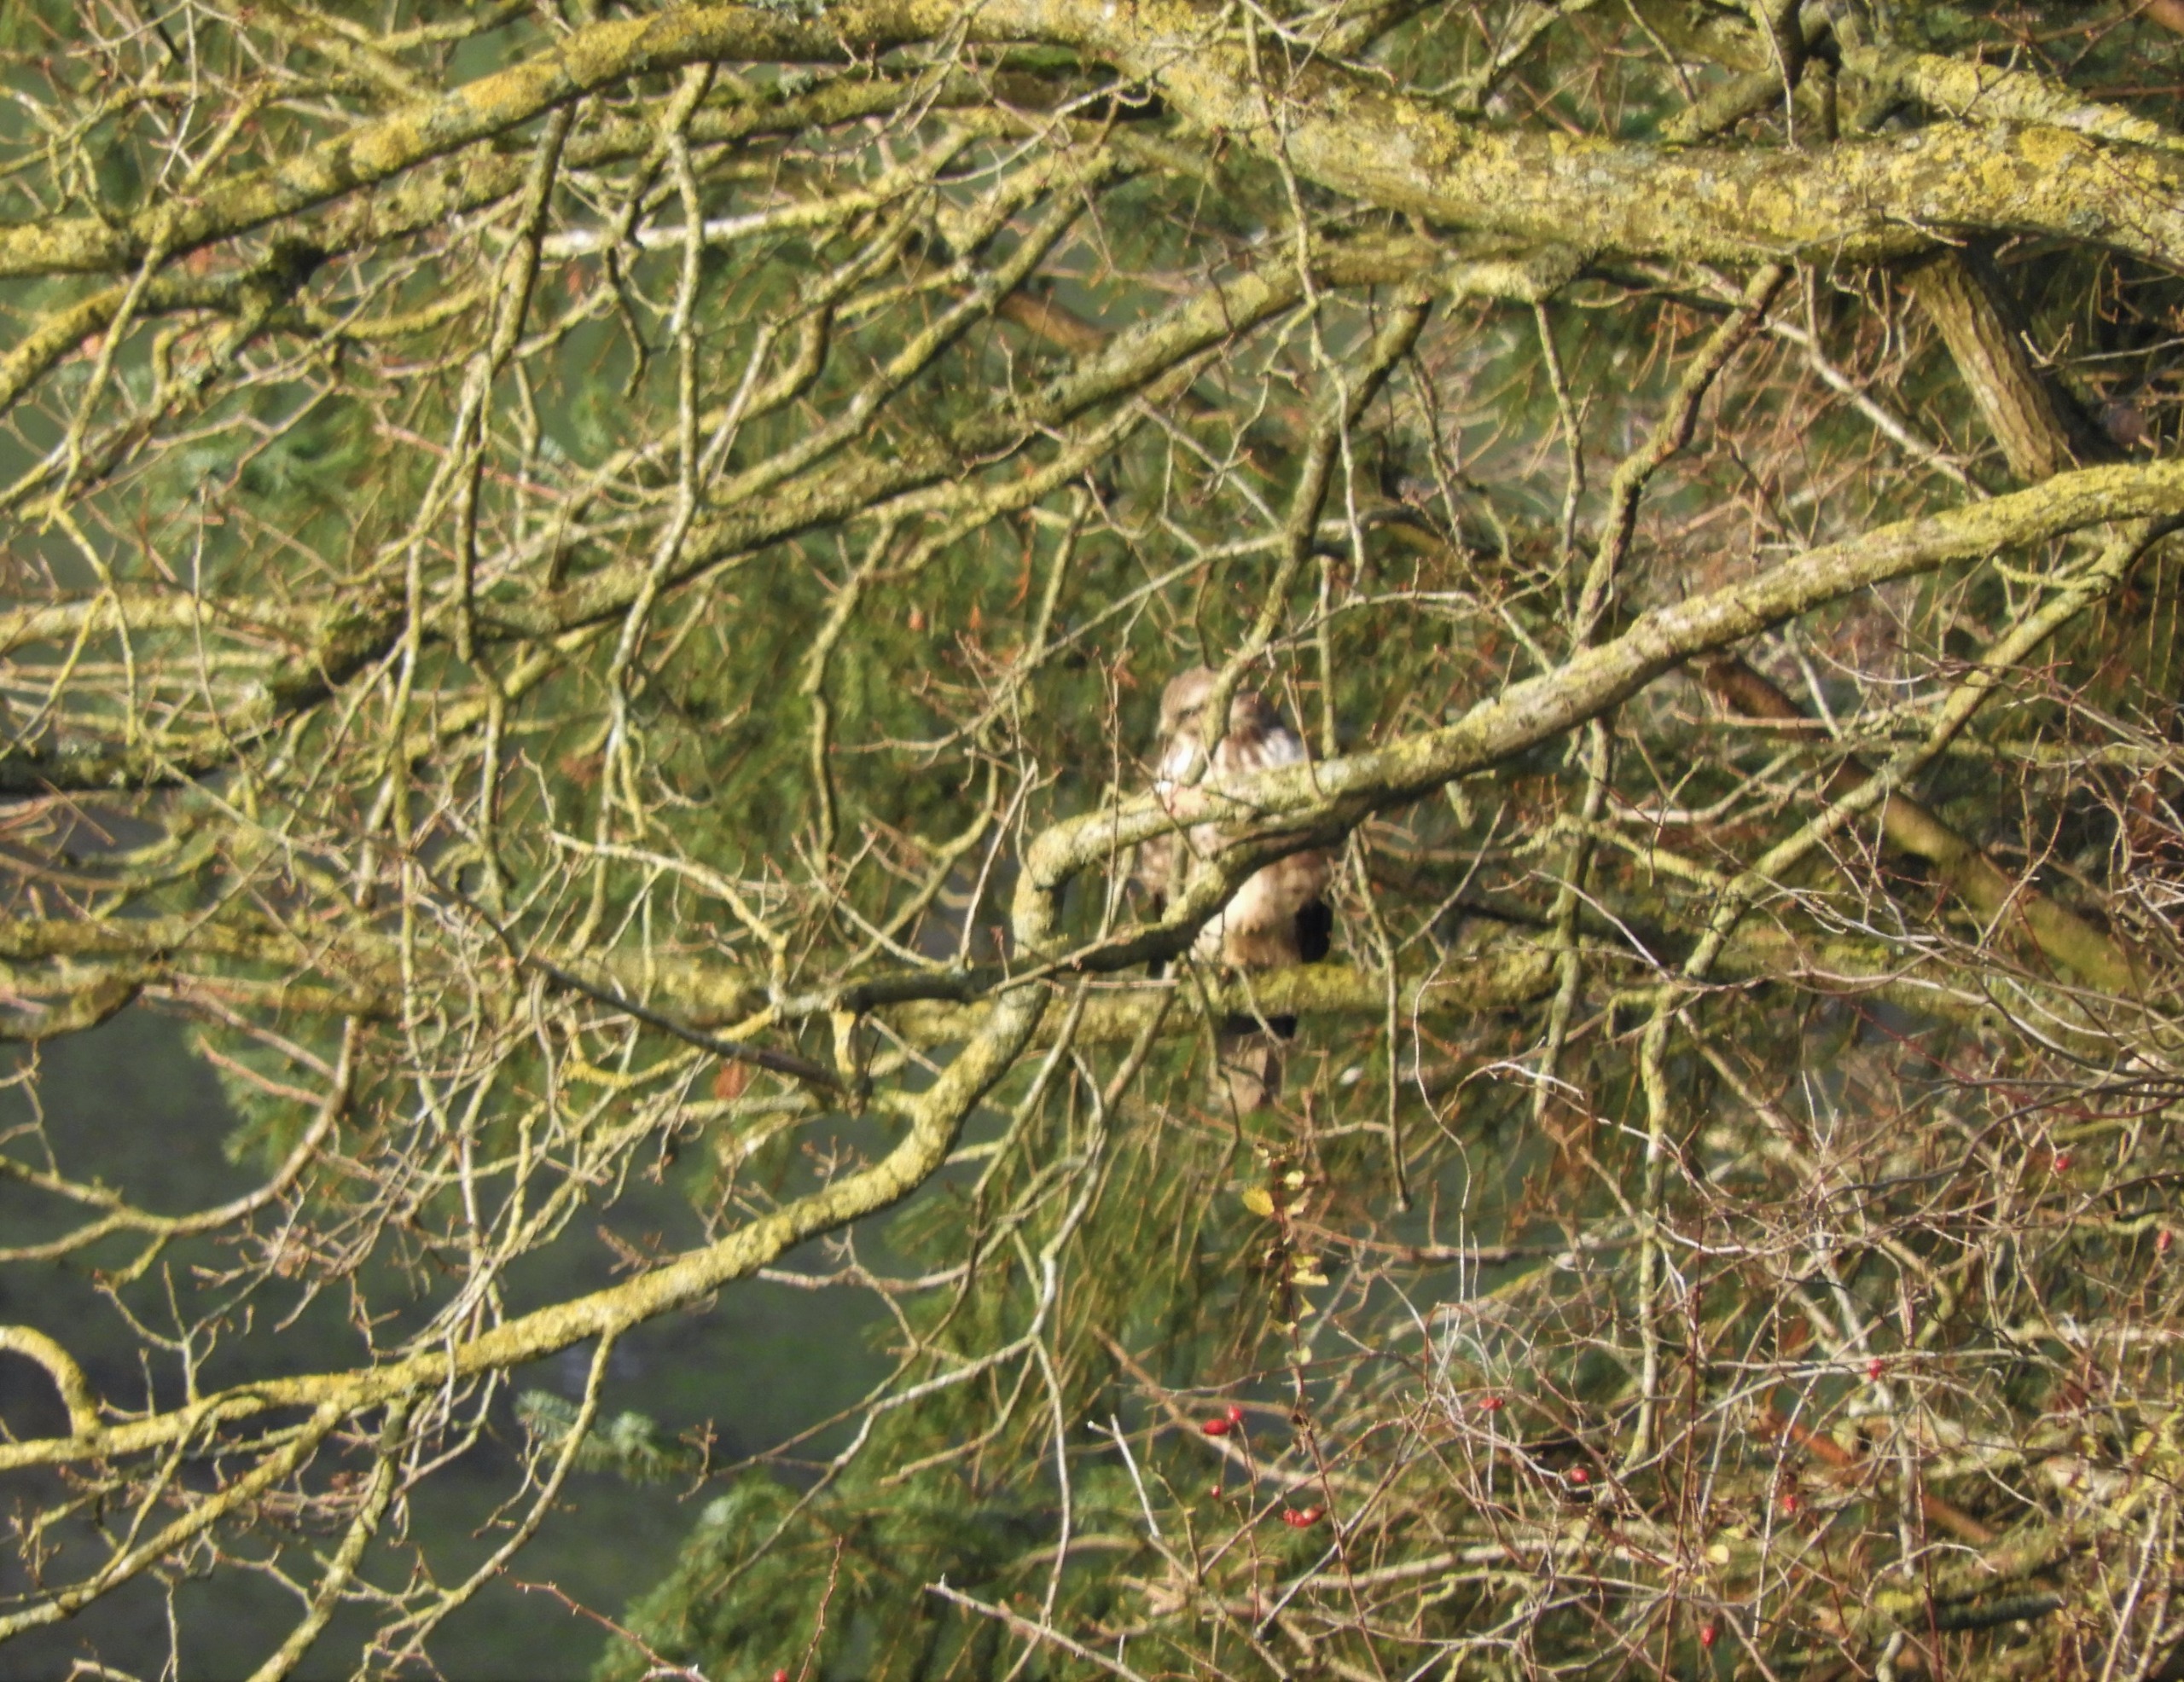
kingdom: Animalia
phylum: Chordata
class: Aves
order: Accipitriformes
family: Accipitridae
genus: Buteo
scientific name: Buteo buteo
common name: Musvåge
